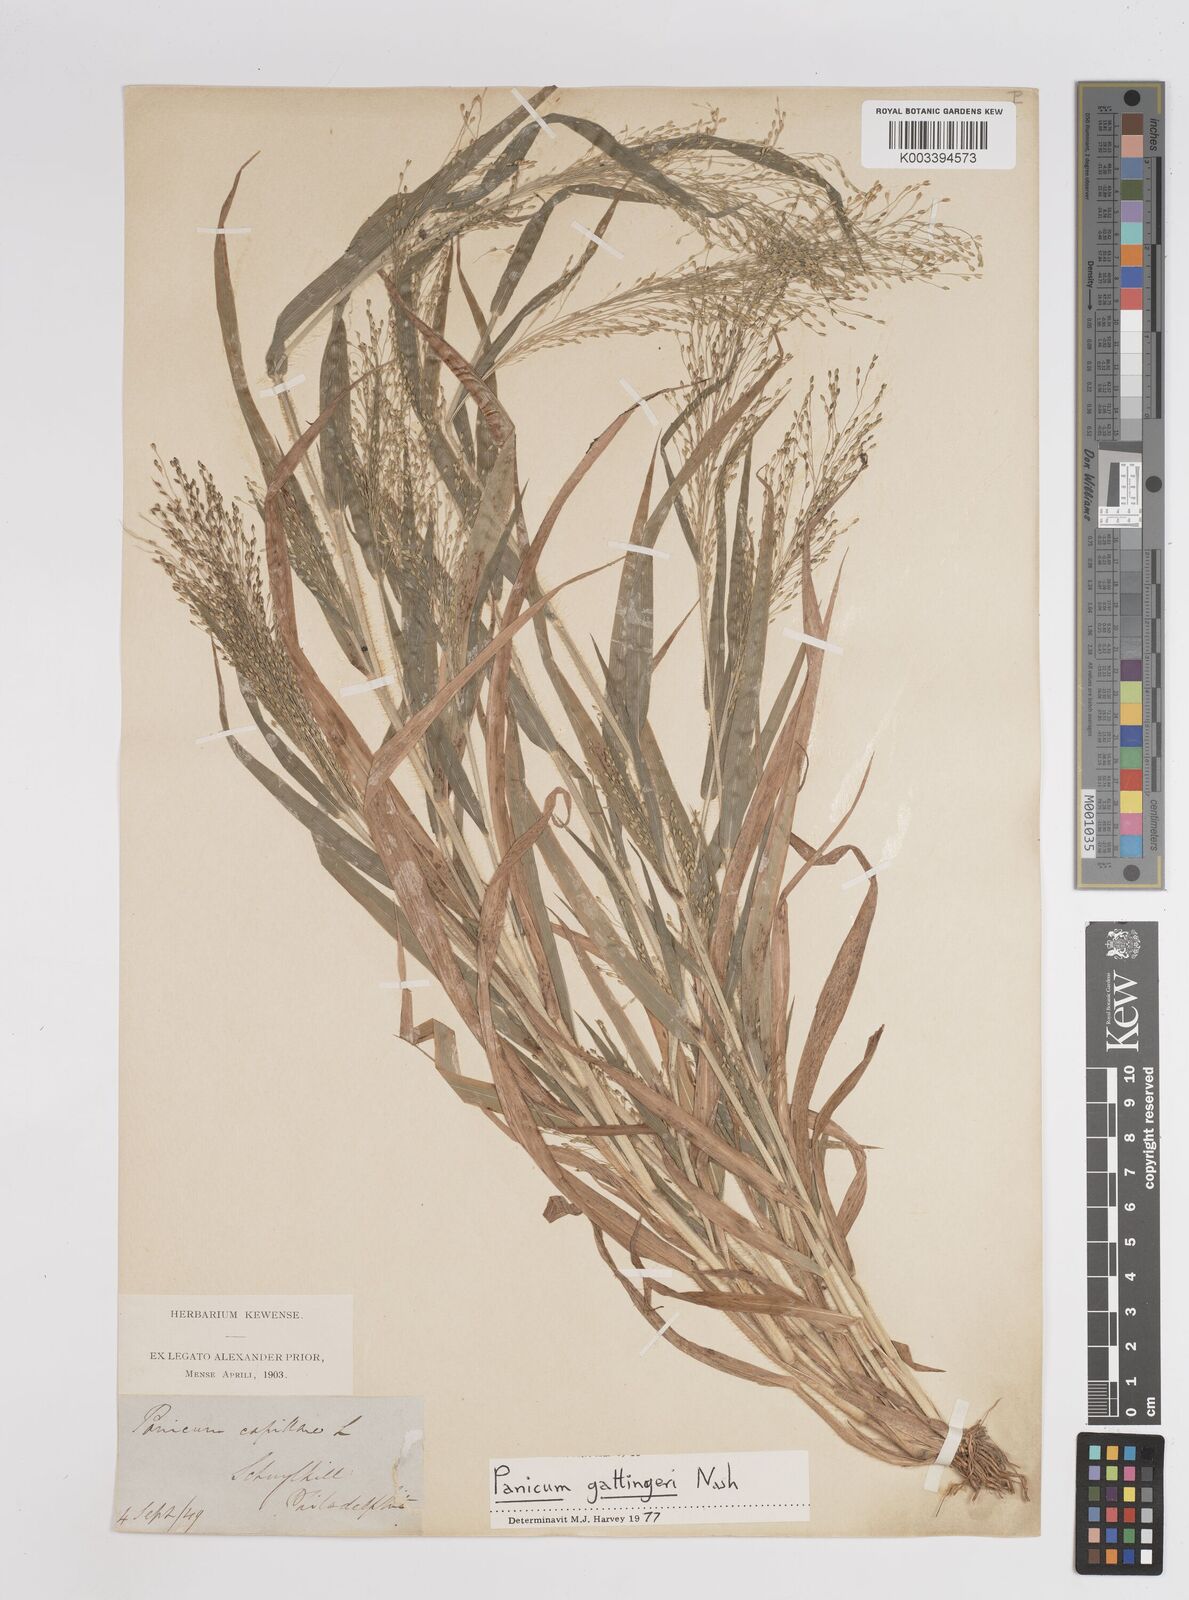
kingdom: Plantae
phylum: Tracheophyta
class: Liliopsida
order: Poales
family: Poaceae
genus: Panicum
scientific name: Panicum gattingeri
